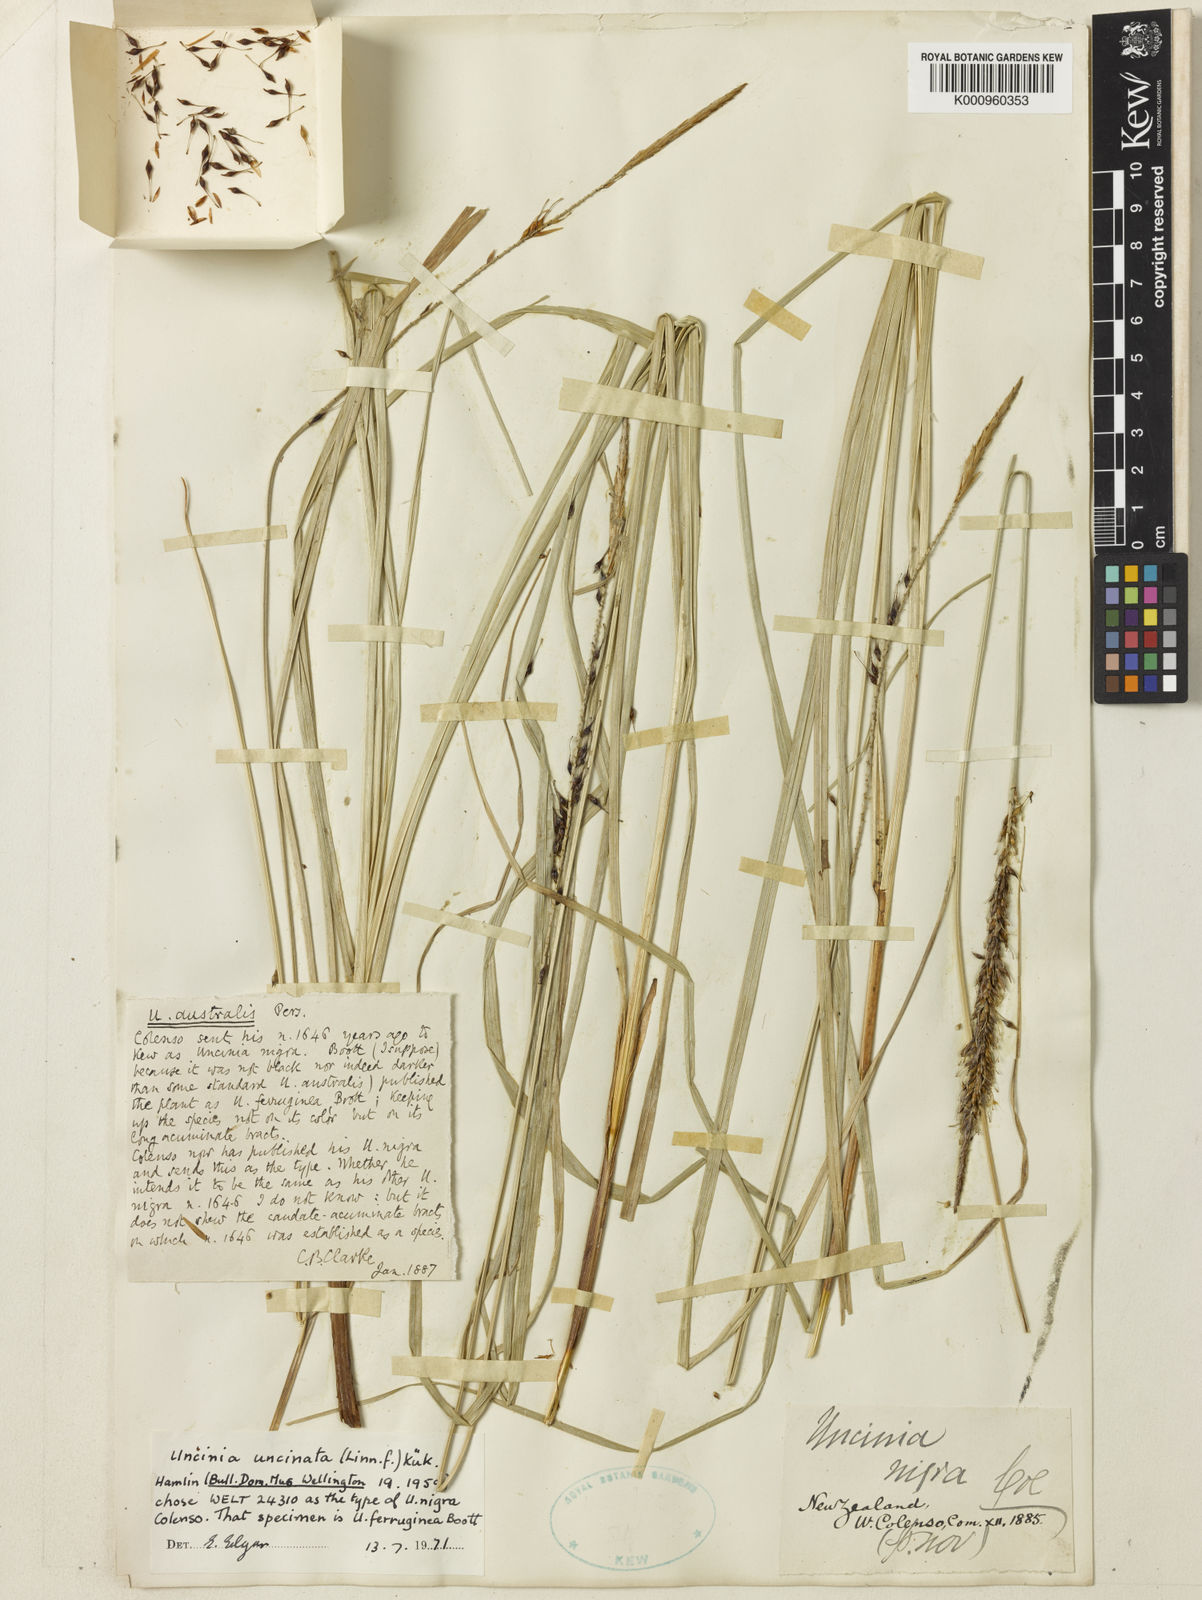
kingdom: Fungi
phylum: Ascomycota
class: Leotiomycetes
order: Helotiales
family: Hamatocanthoscyphaceae
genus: Uncinia
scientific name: Uncinia
